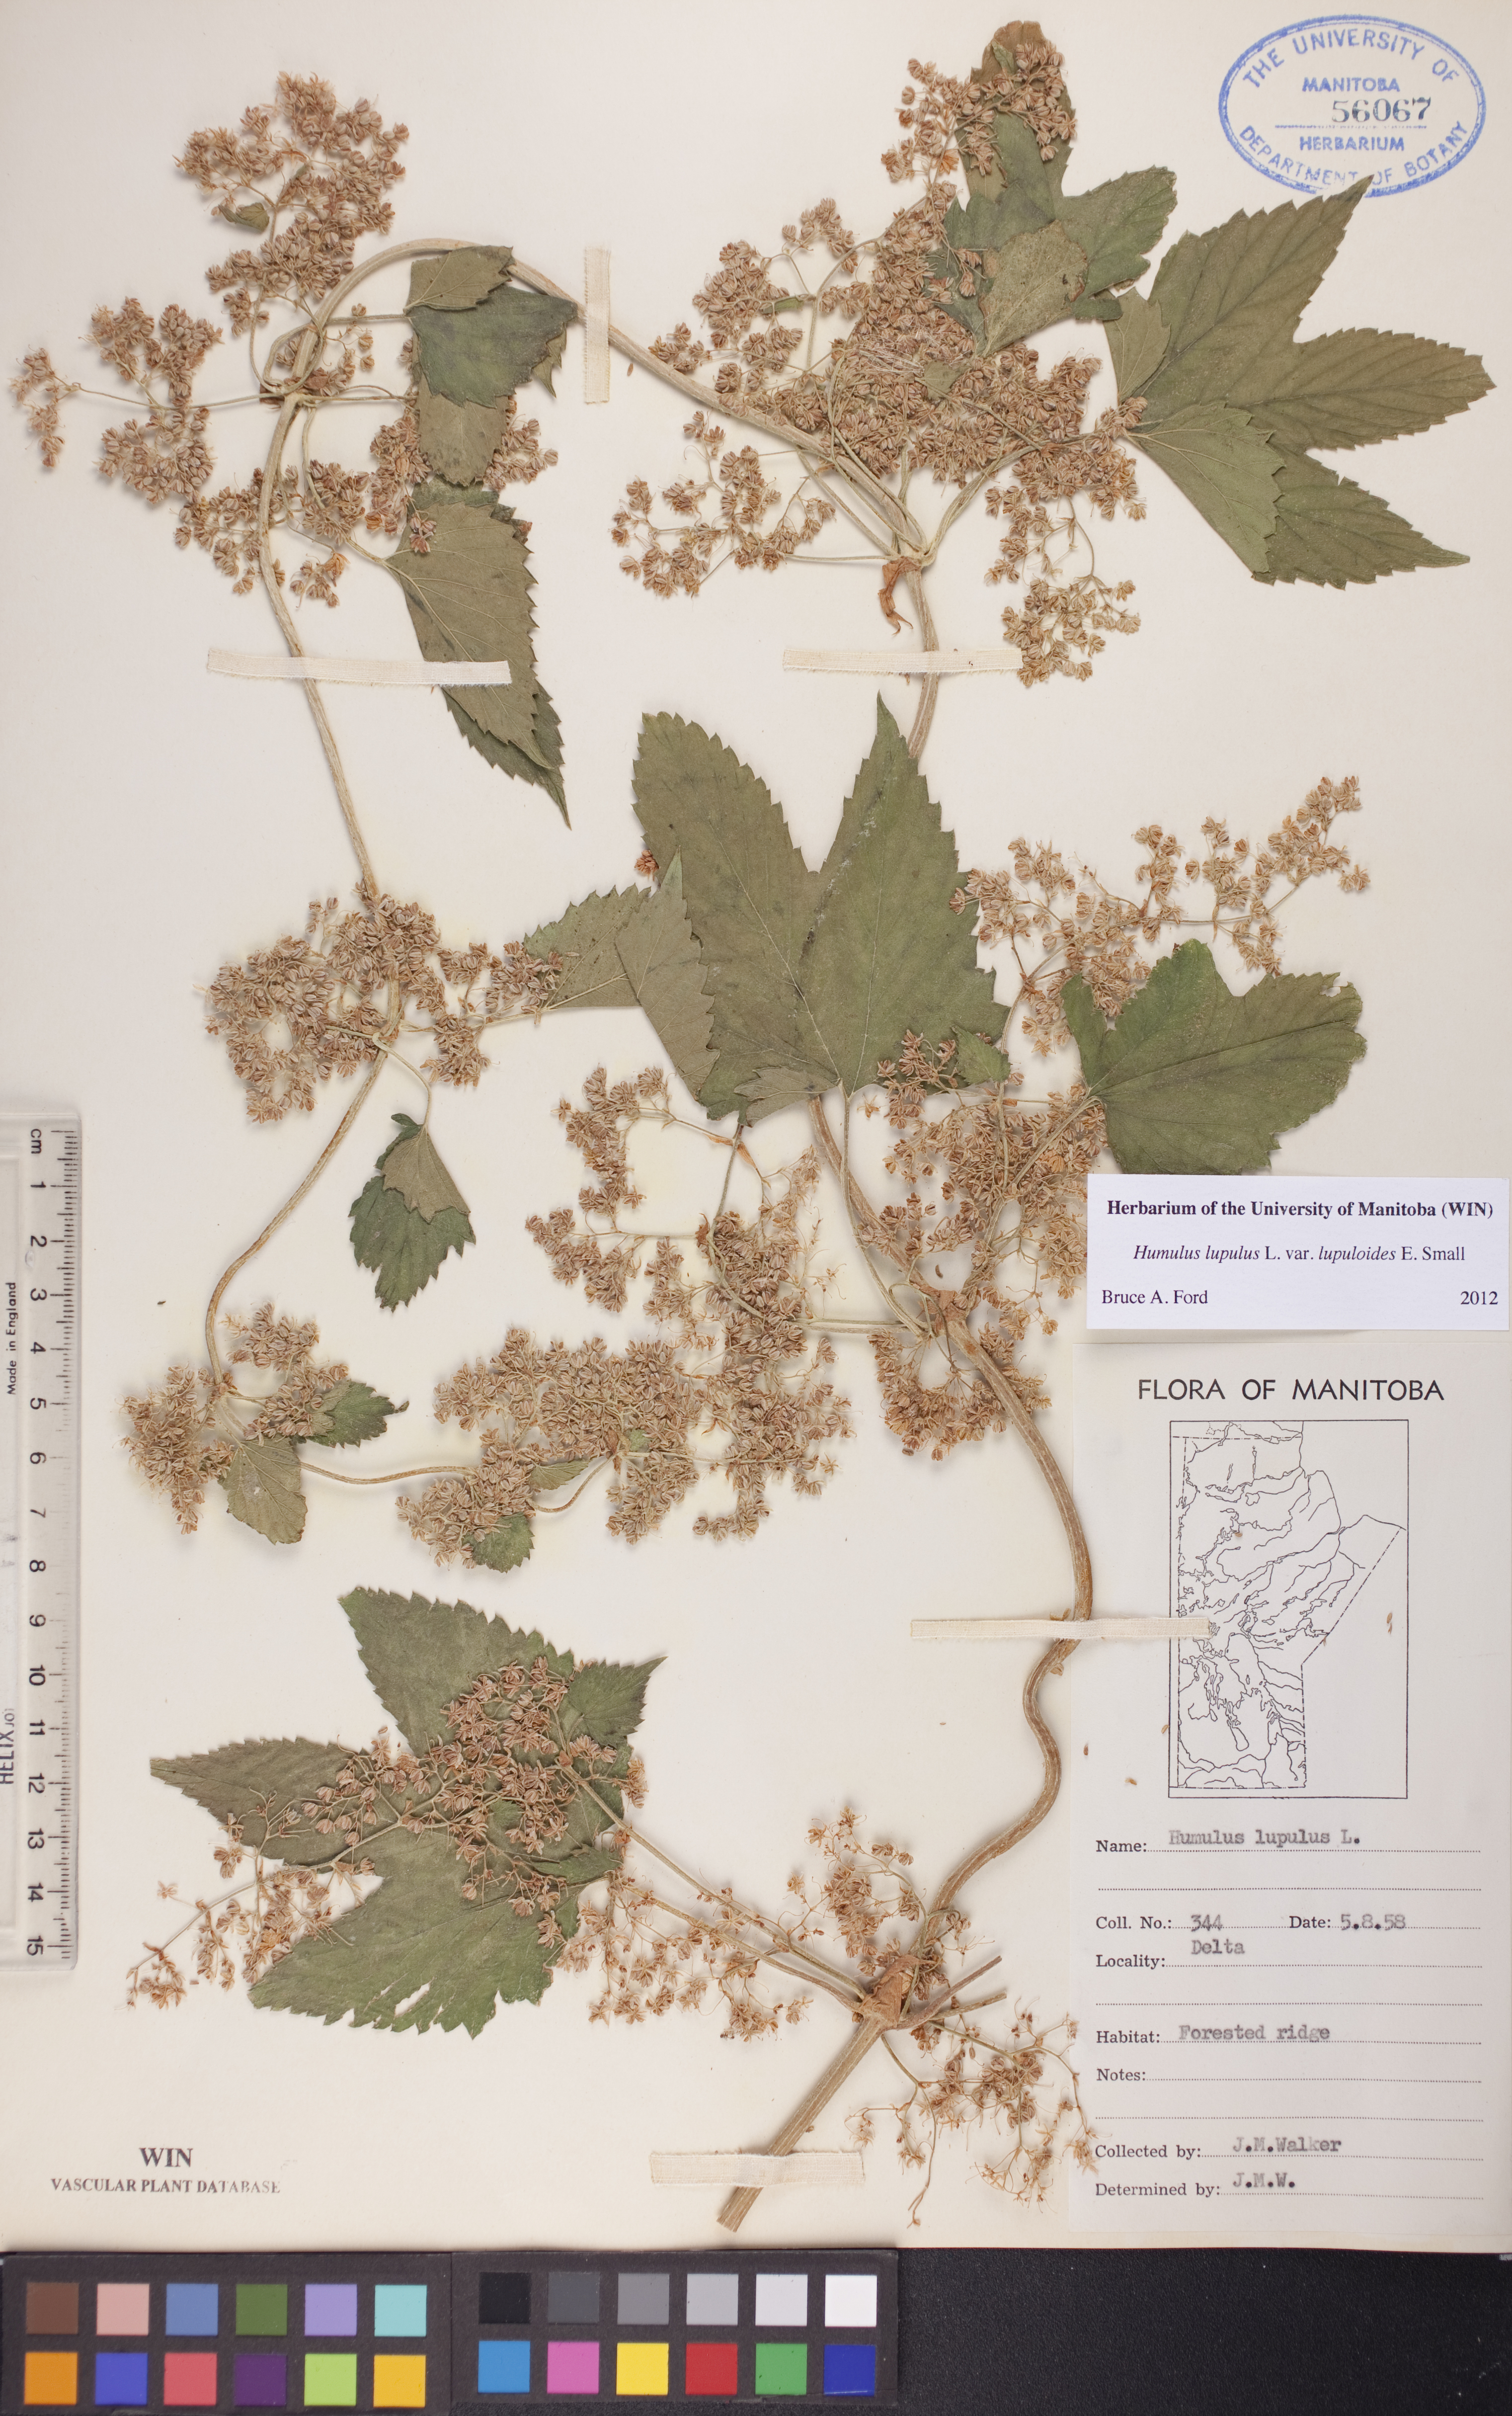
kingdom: Plantae
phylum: Tracheophyta
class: Magnoliopsida
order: Rosales
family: Cannabaceae
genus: Humulus
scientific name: Humulus americanus
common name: American hops
